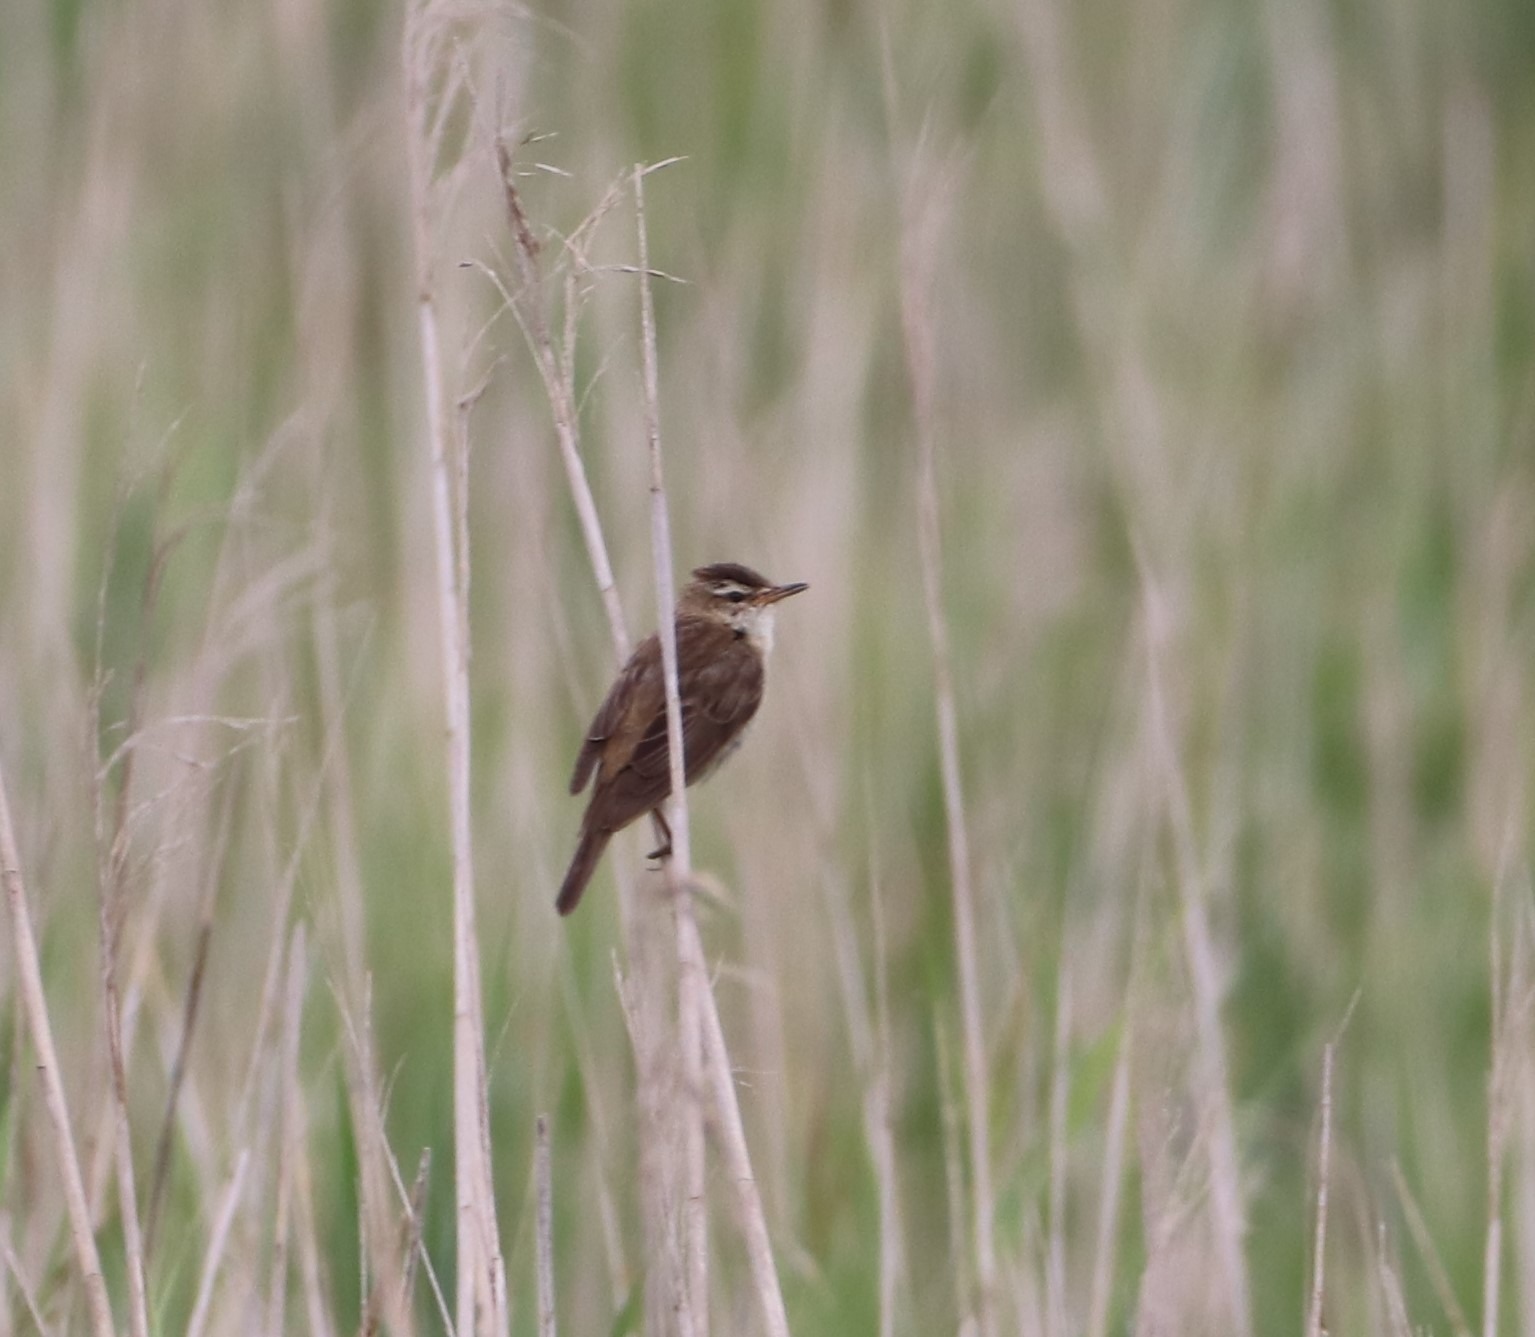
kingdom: Animalia
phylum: Chordata
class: Aves
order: Passeriformes
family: Acrocephalidae
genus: Acrocephalus
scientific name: Acrocephalus schoenobaenus
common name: Sivsanger
